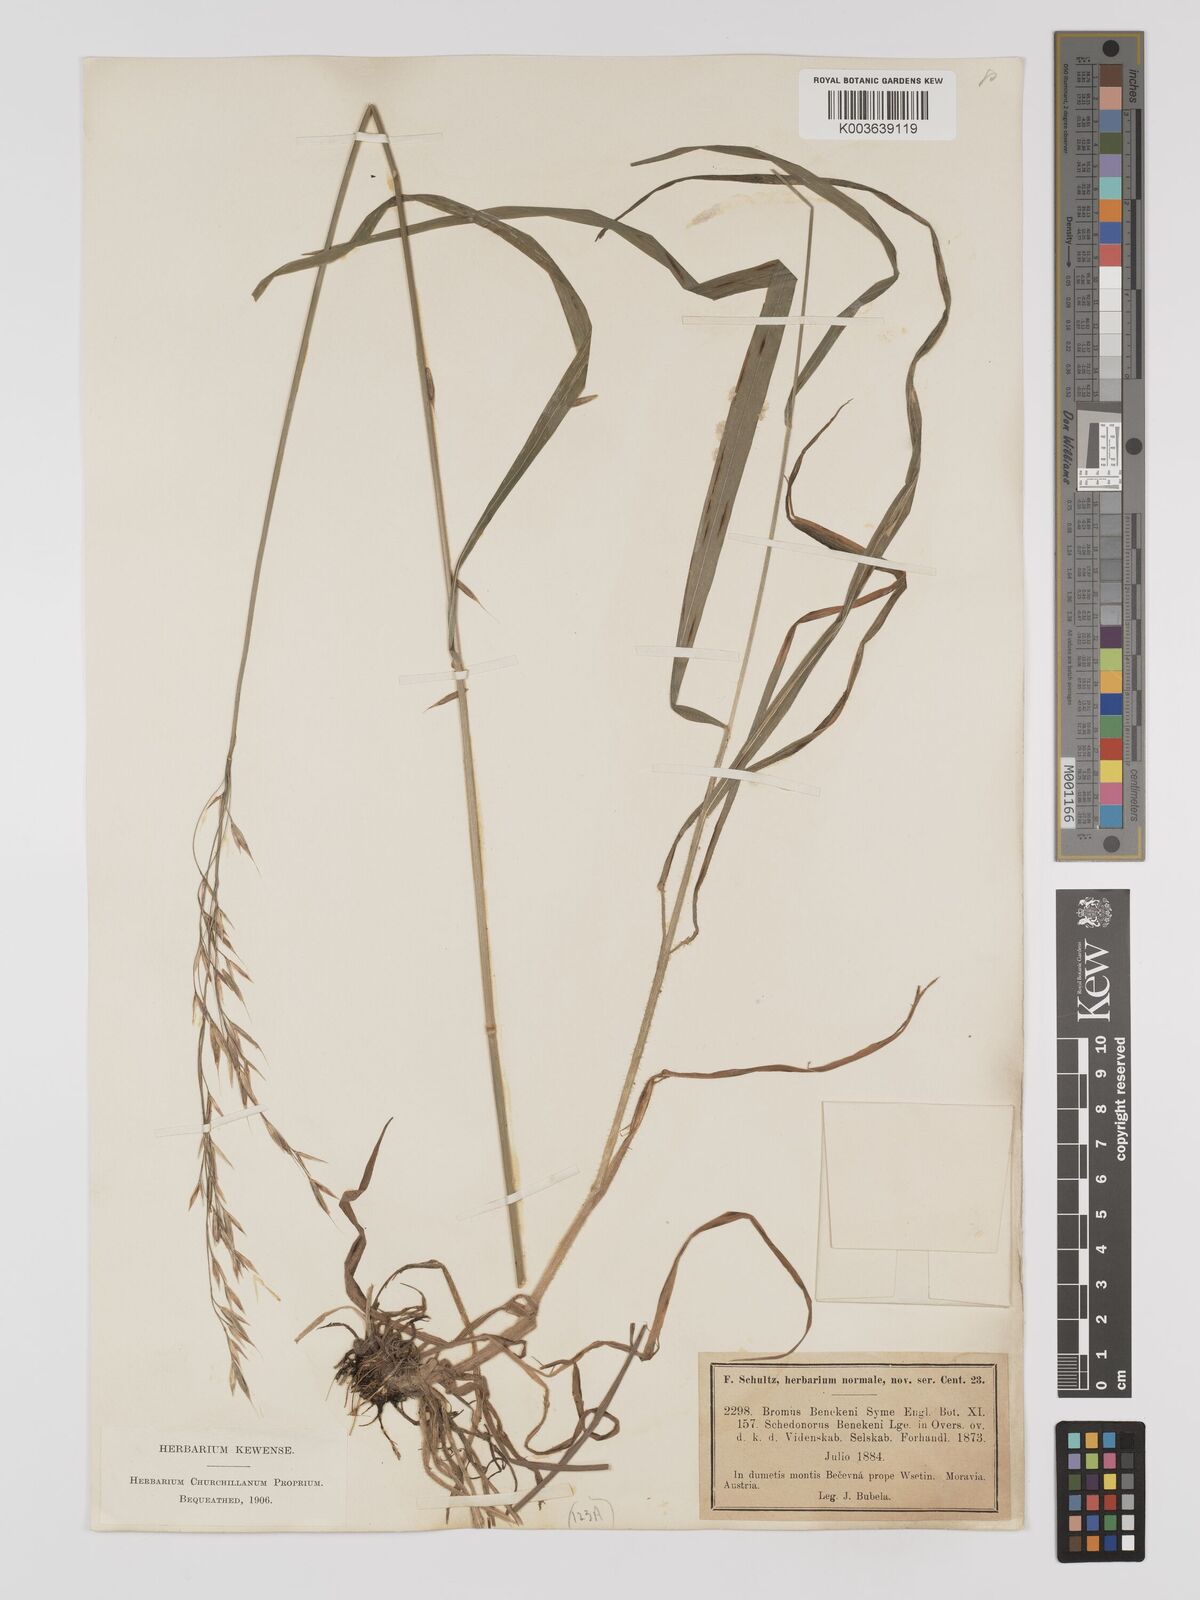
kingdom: Plantae
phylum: Tracheophyta
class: Liliopsida
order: Poales
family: Poaceae
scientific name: Poaceae
